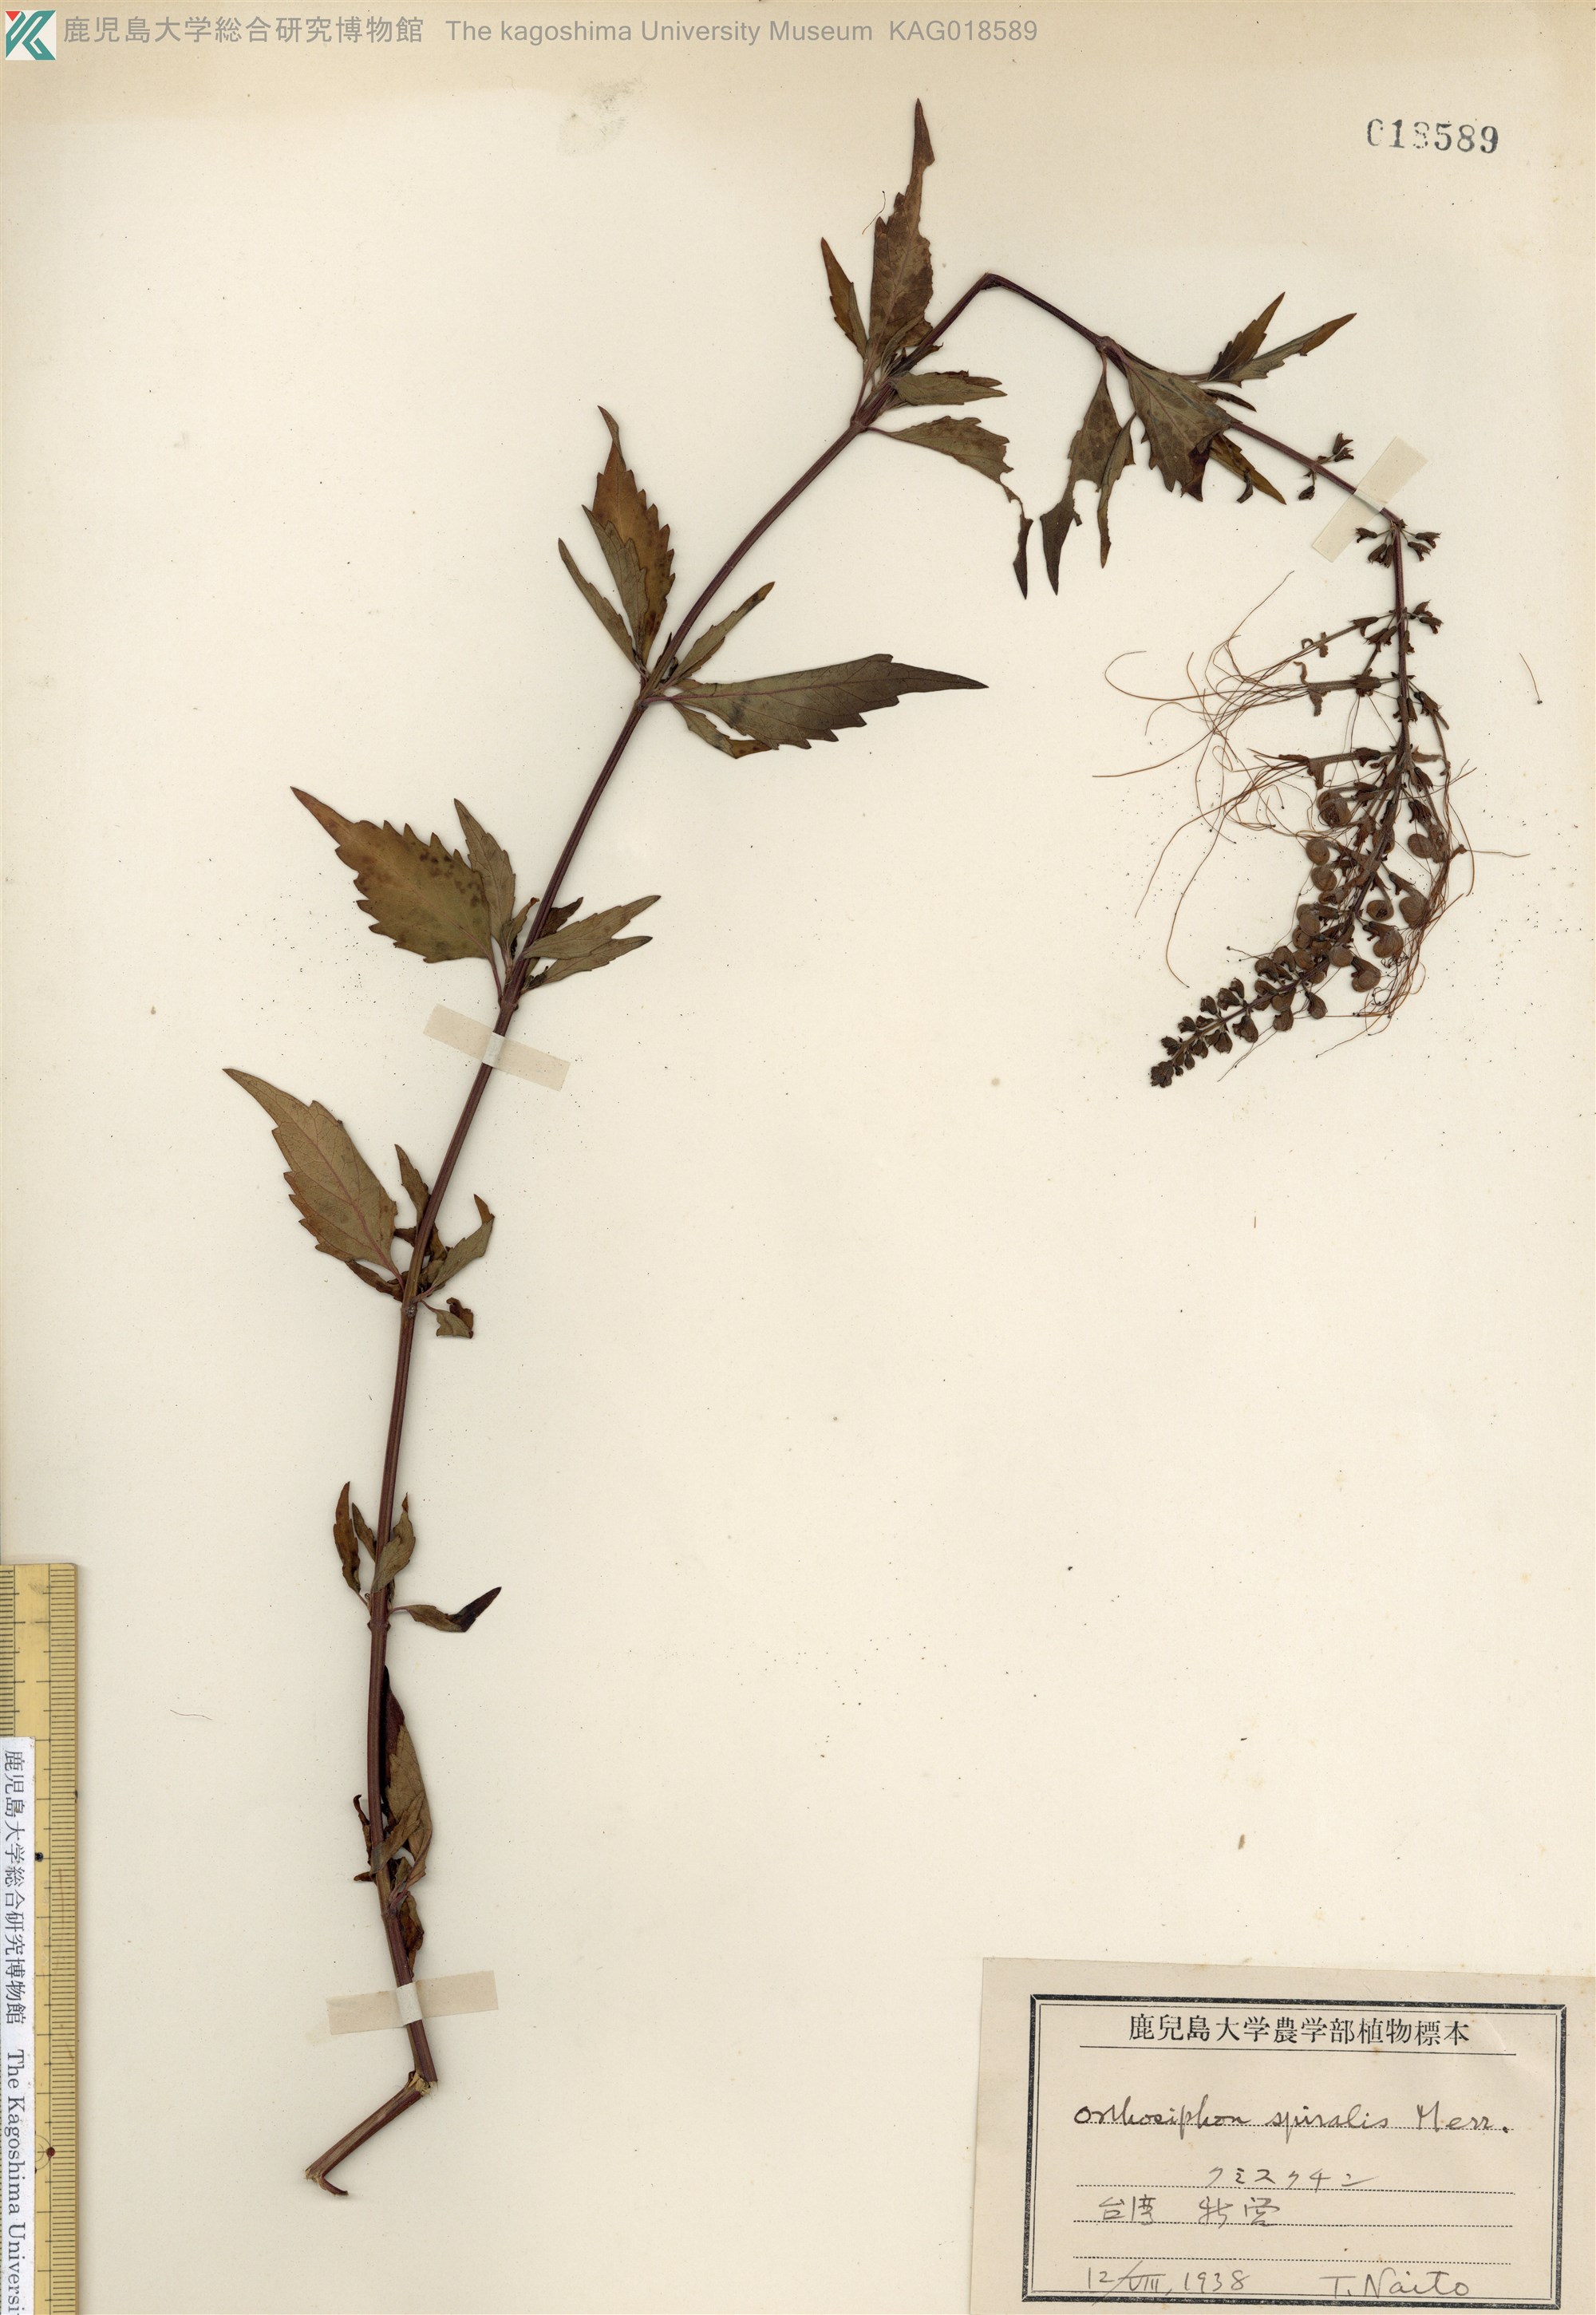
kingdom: Plantae
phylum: Tracheophyta
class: Magnoliopsida
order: Lamiales
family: Lamiaceae
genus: Orthosiphon
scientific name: Orthosiphon aristatus
